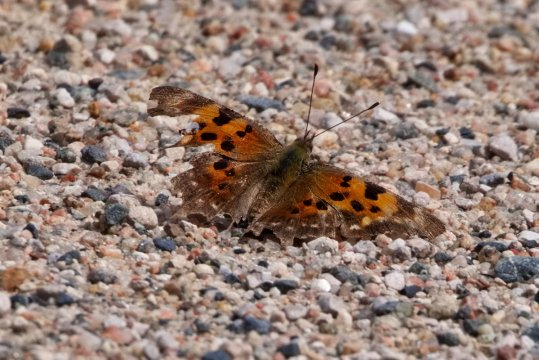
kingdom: Animalia
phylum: Arthropoda
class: Insecta
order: Lepidoptera
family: Nymphalidae
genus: Polygonia
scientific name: Polygonia faunus
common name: Green Comma
